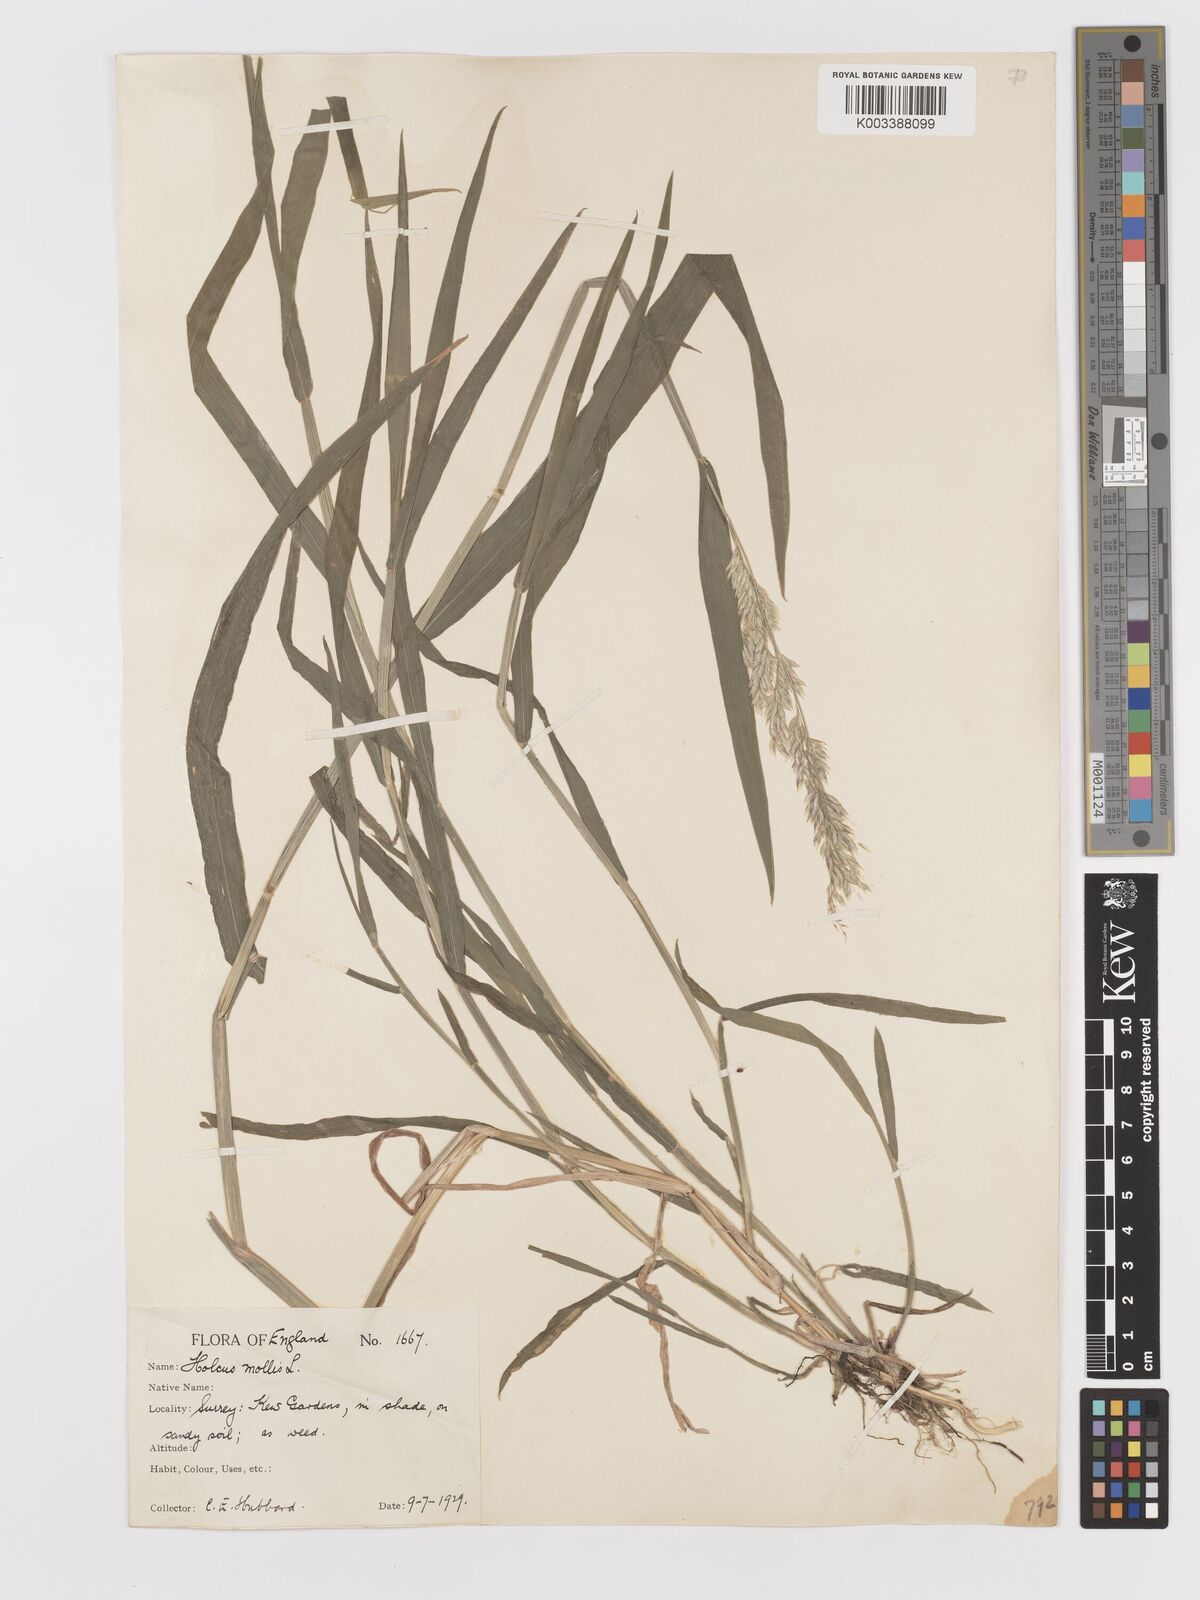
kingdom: Plantae
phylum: Tracheophyta
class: Liliopsida
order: Poales
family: Poaceae
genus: Holcus
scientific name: Holcus mollis
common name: Creeping velvetgrass
